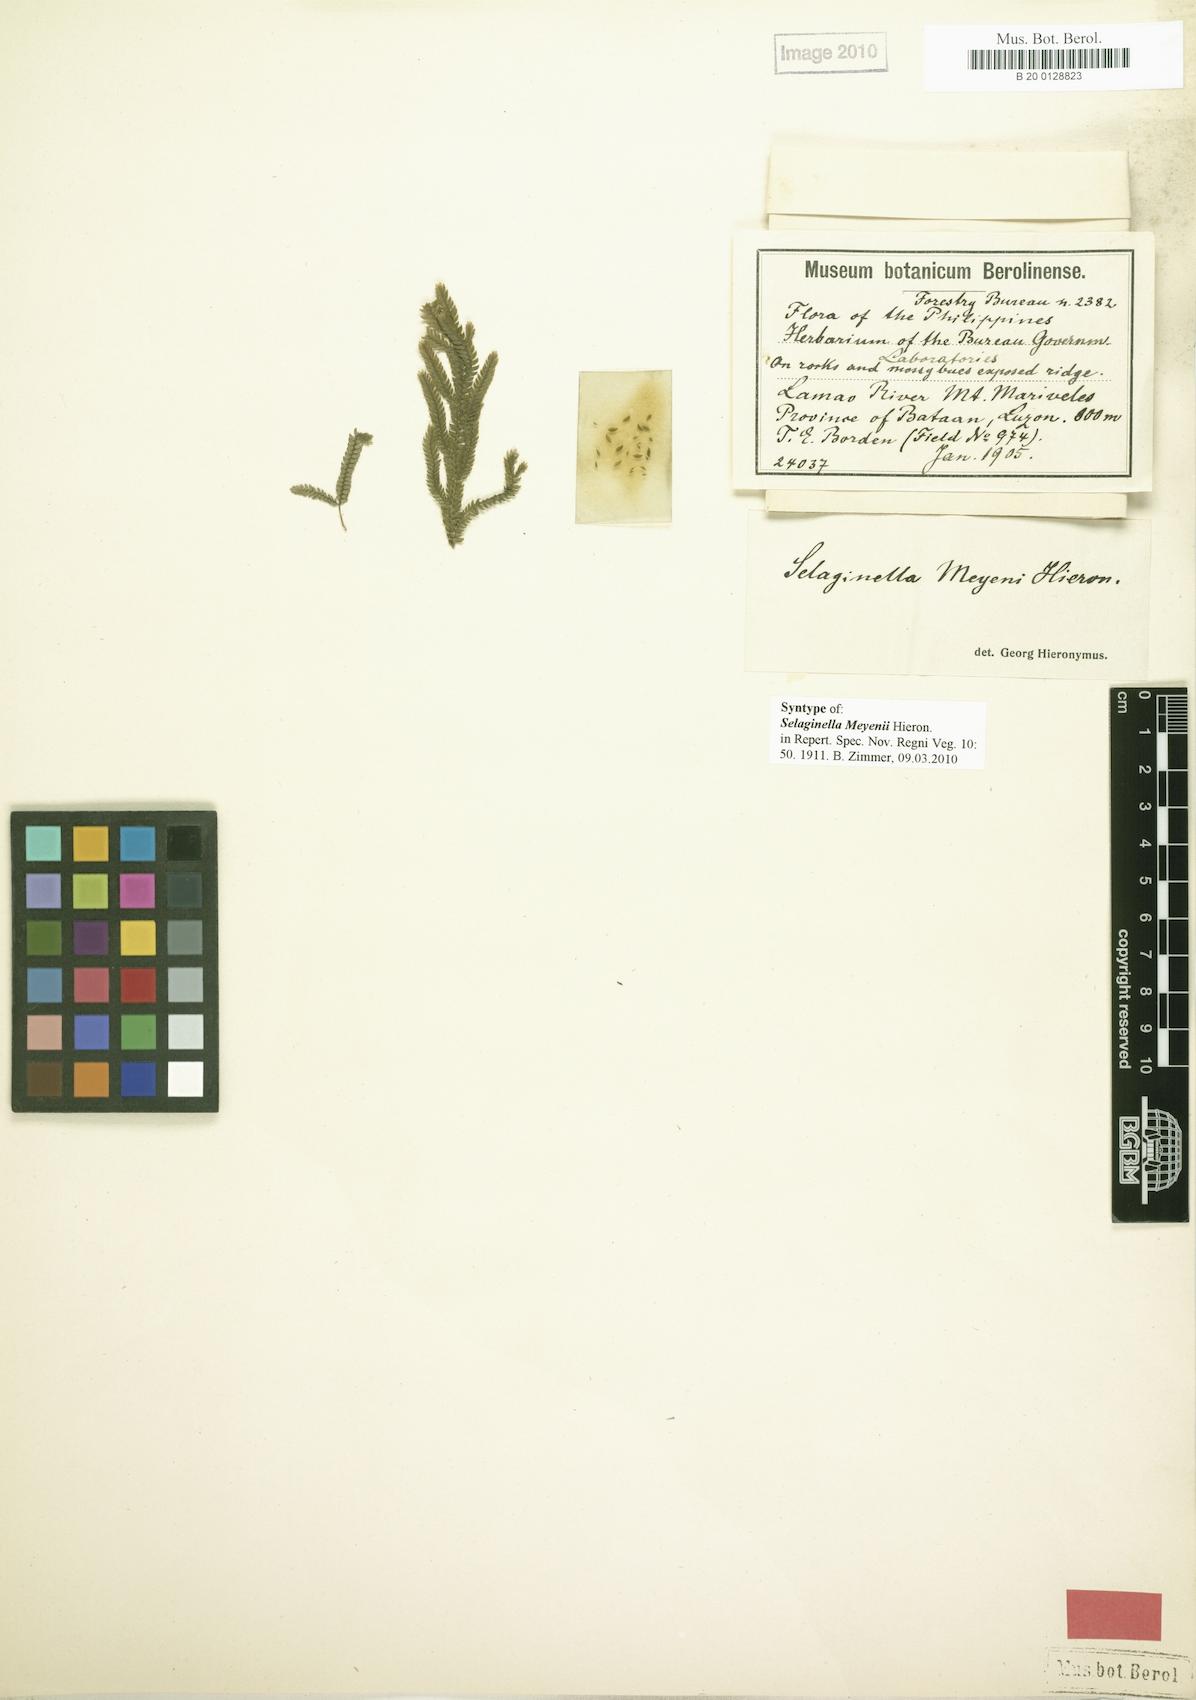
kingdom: Plantae
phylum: Tracheophyta
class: Lycopodiopsida
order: Selaginellales
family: Selaginellaceae
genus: Selaginella
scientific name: Selaginella jagorii
